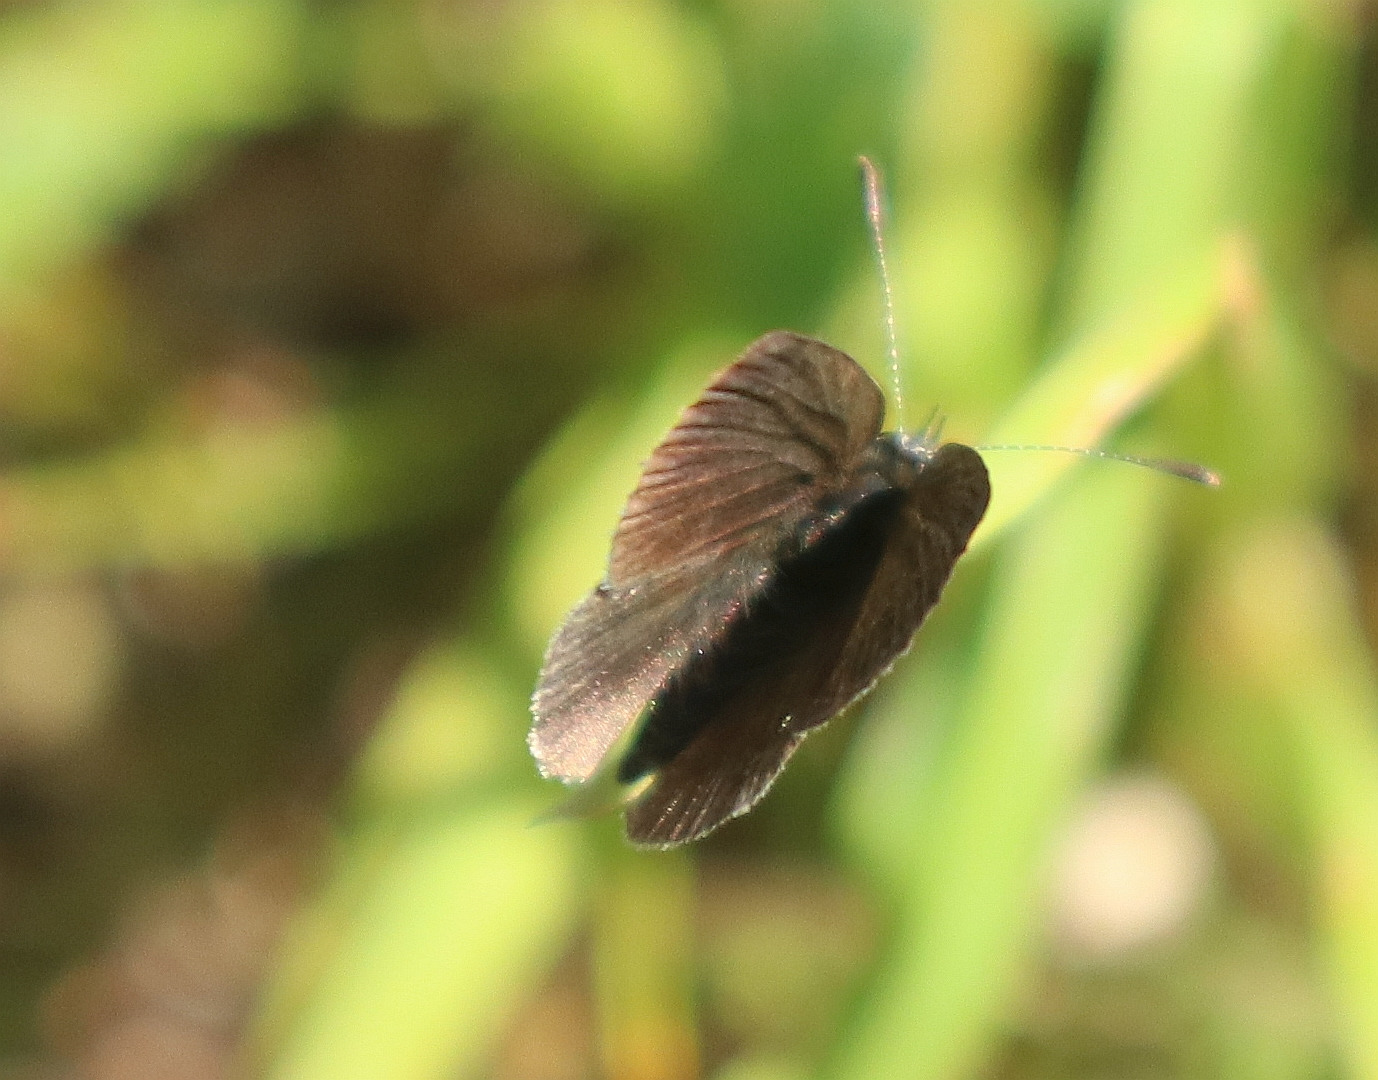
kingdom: Animalia
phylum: Arthropoda
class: Insecta
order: Lepidoptera
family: Nymphalidae
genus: Aphantopus
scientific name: Aphantopus hyperantus
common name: Engrandøje
